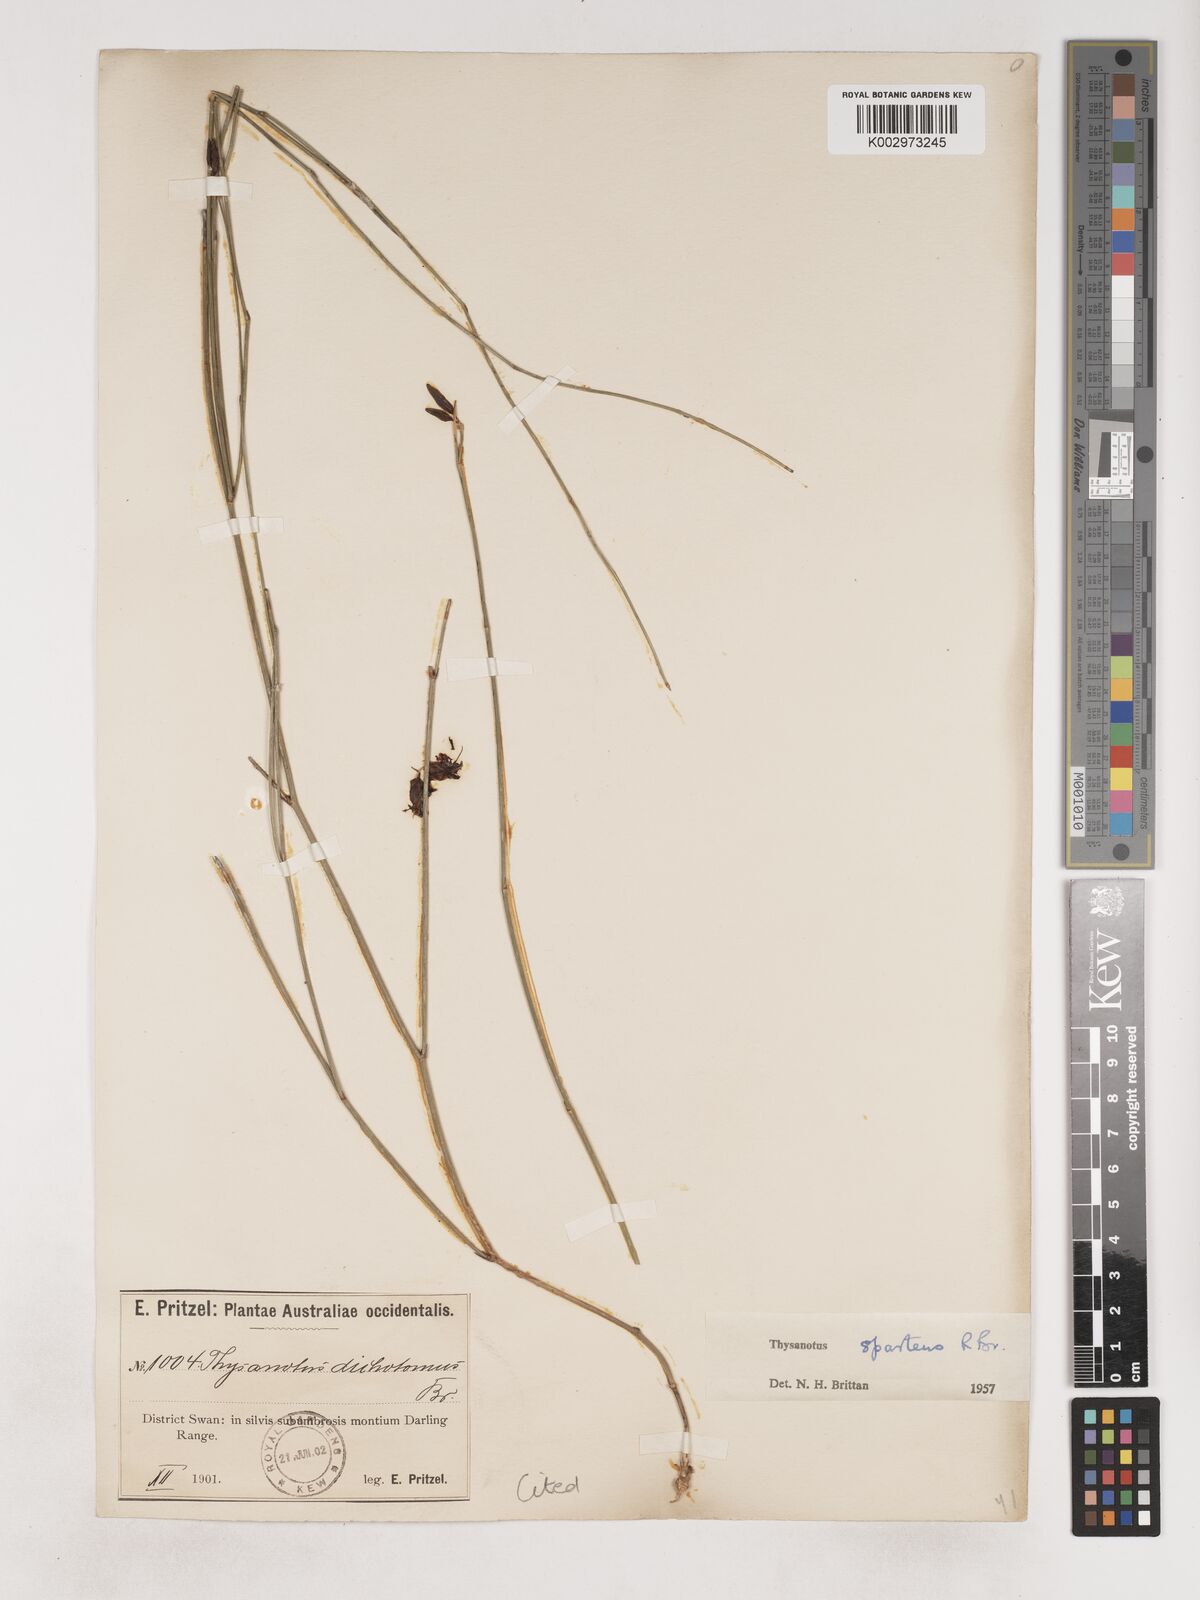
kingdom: Plantae
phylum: Tracheophyta
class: Liliopsida
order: Asparagales
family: Asparagaceae
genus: Thysanotus
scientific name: Thysanotus sparteus
